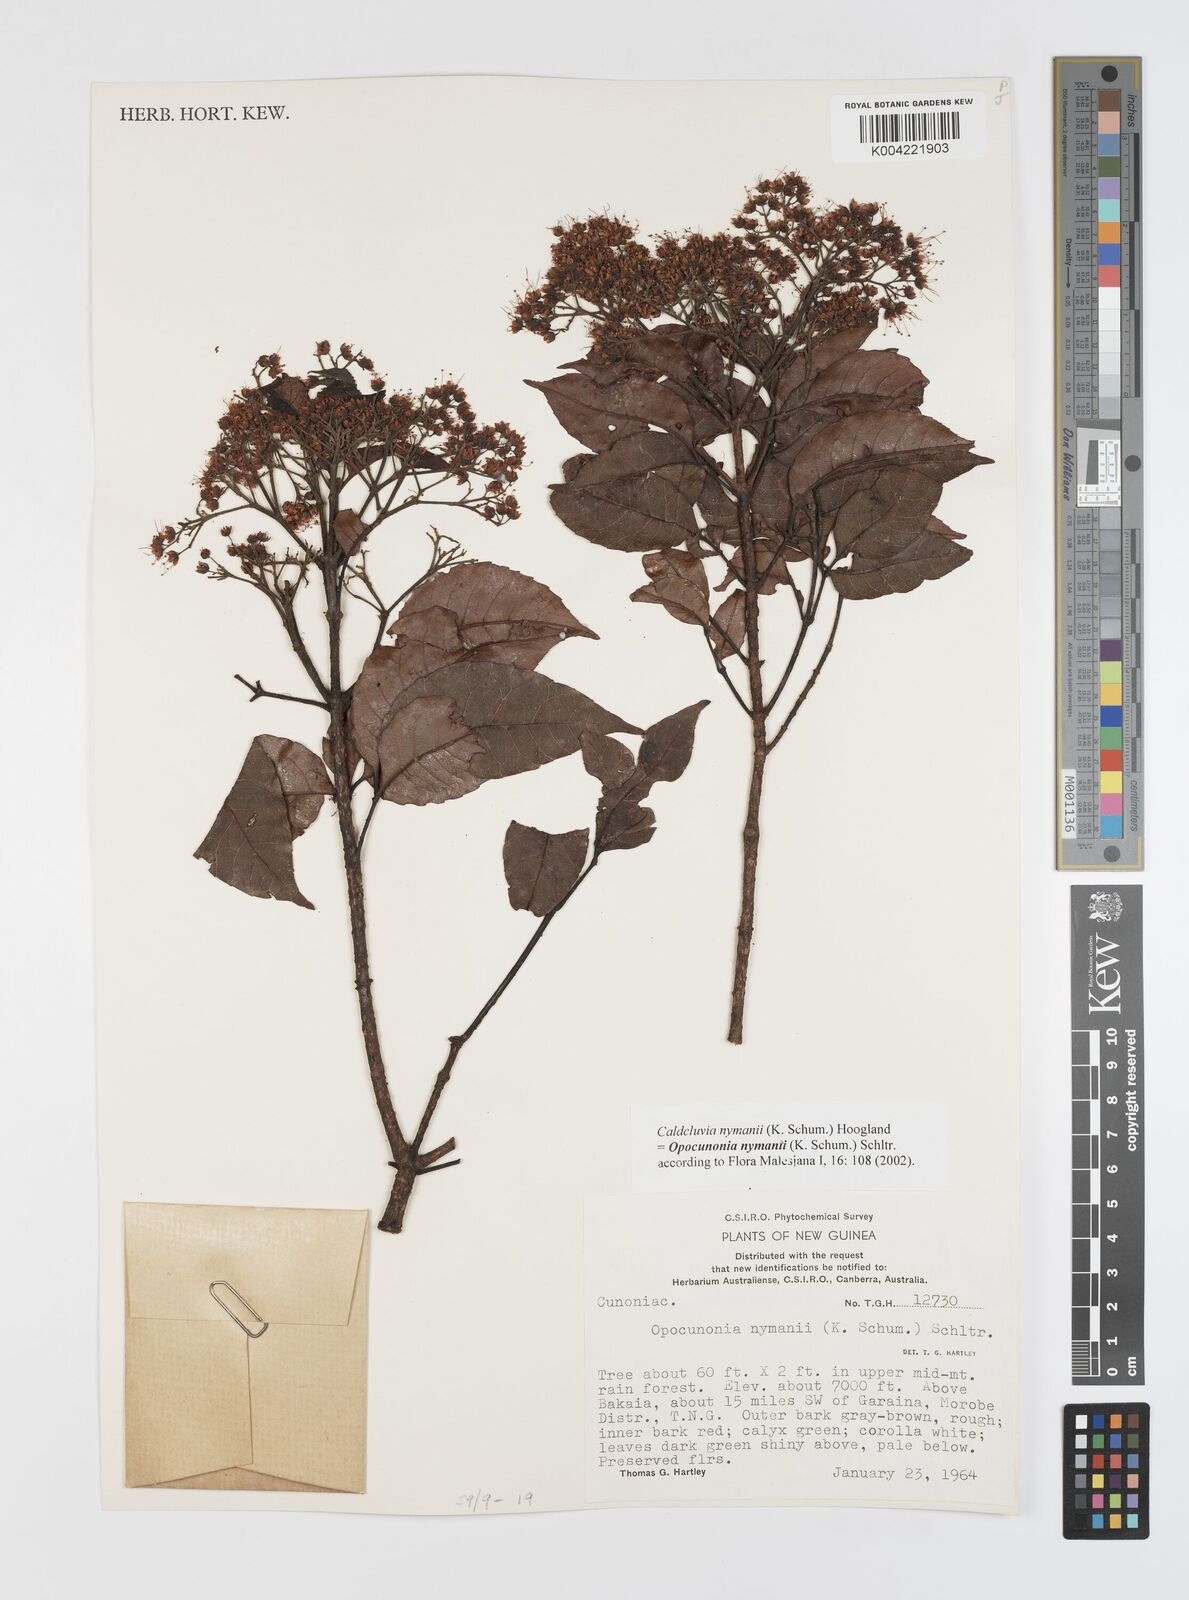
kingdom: Plantae
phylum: Tracheophyta
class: Magnoliopsida
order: Oxalidales
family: Cunoniaceae
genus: Opocunonia
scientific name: Opocunonia nymanii
